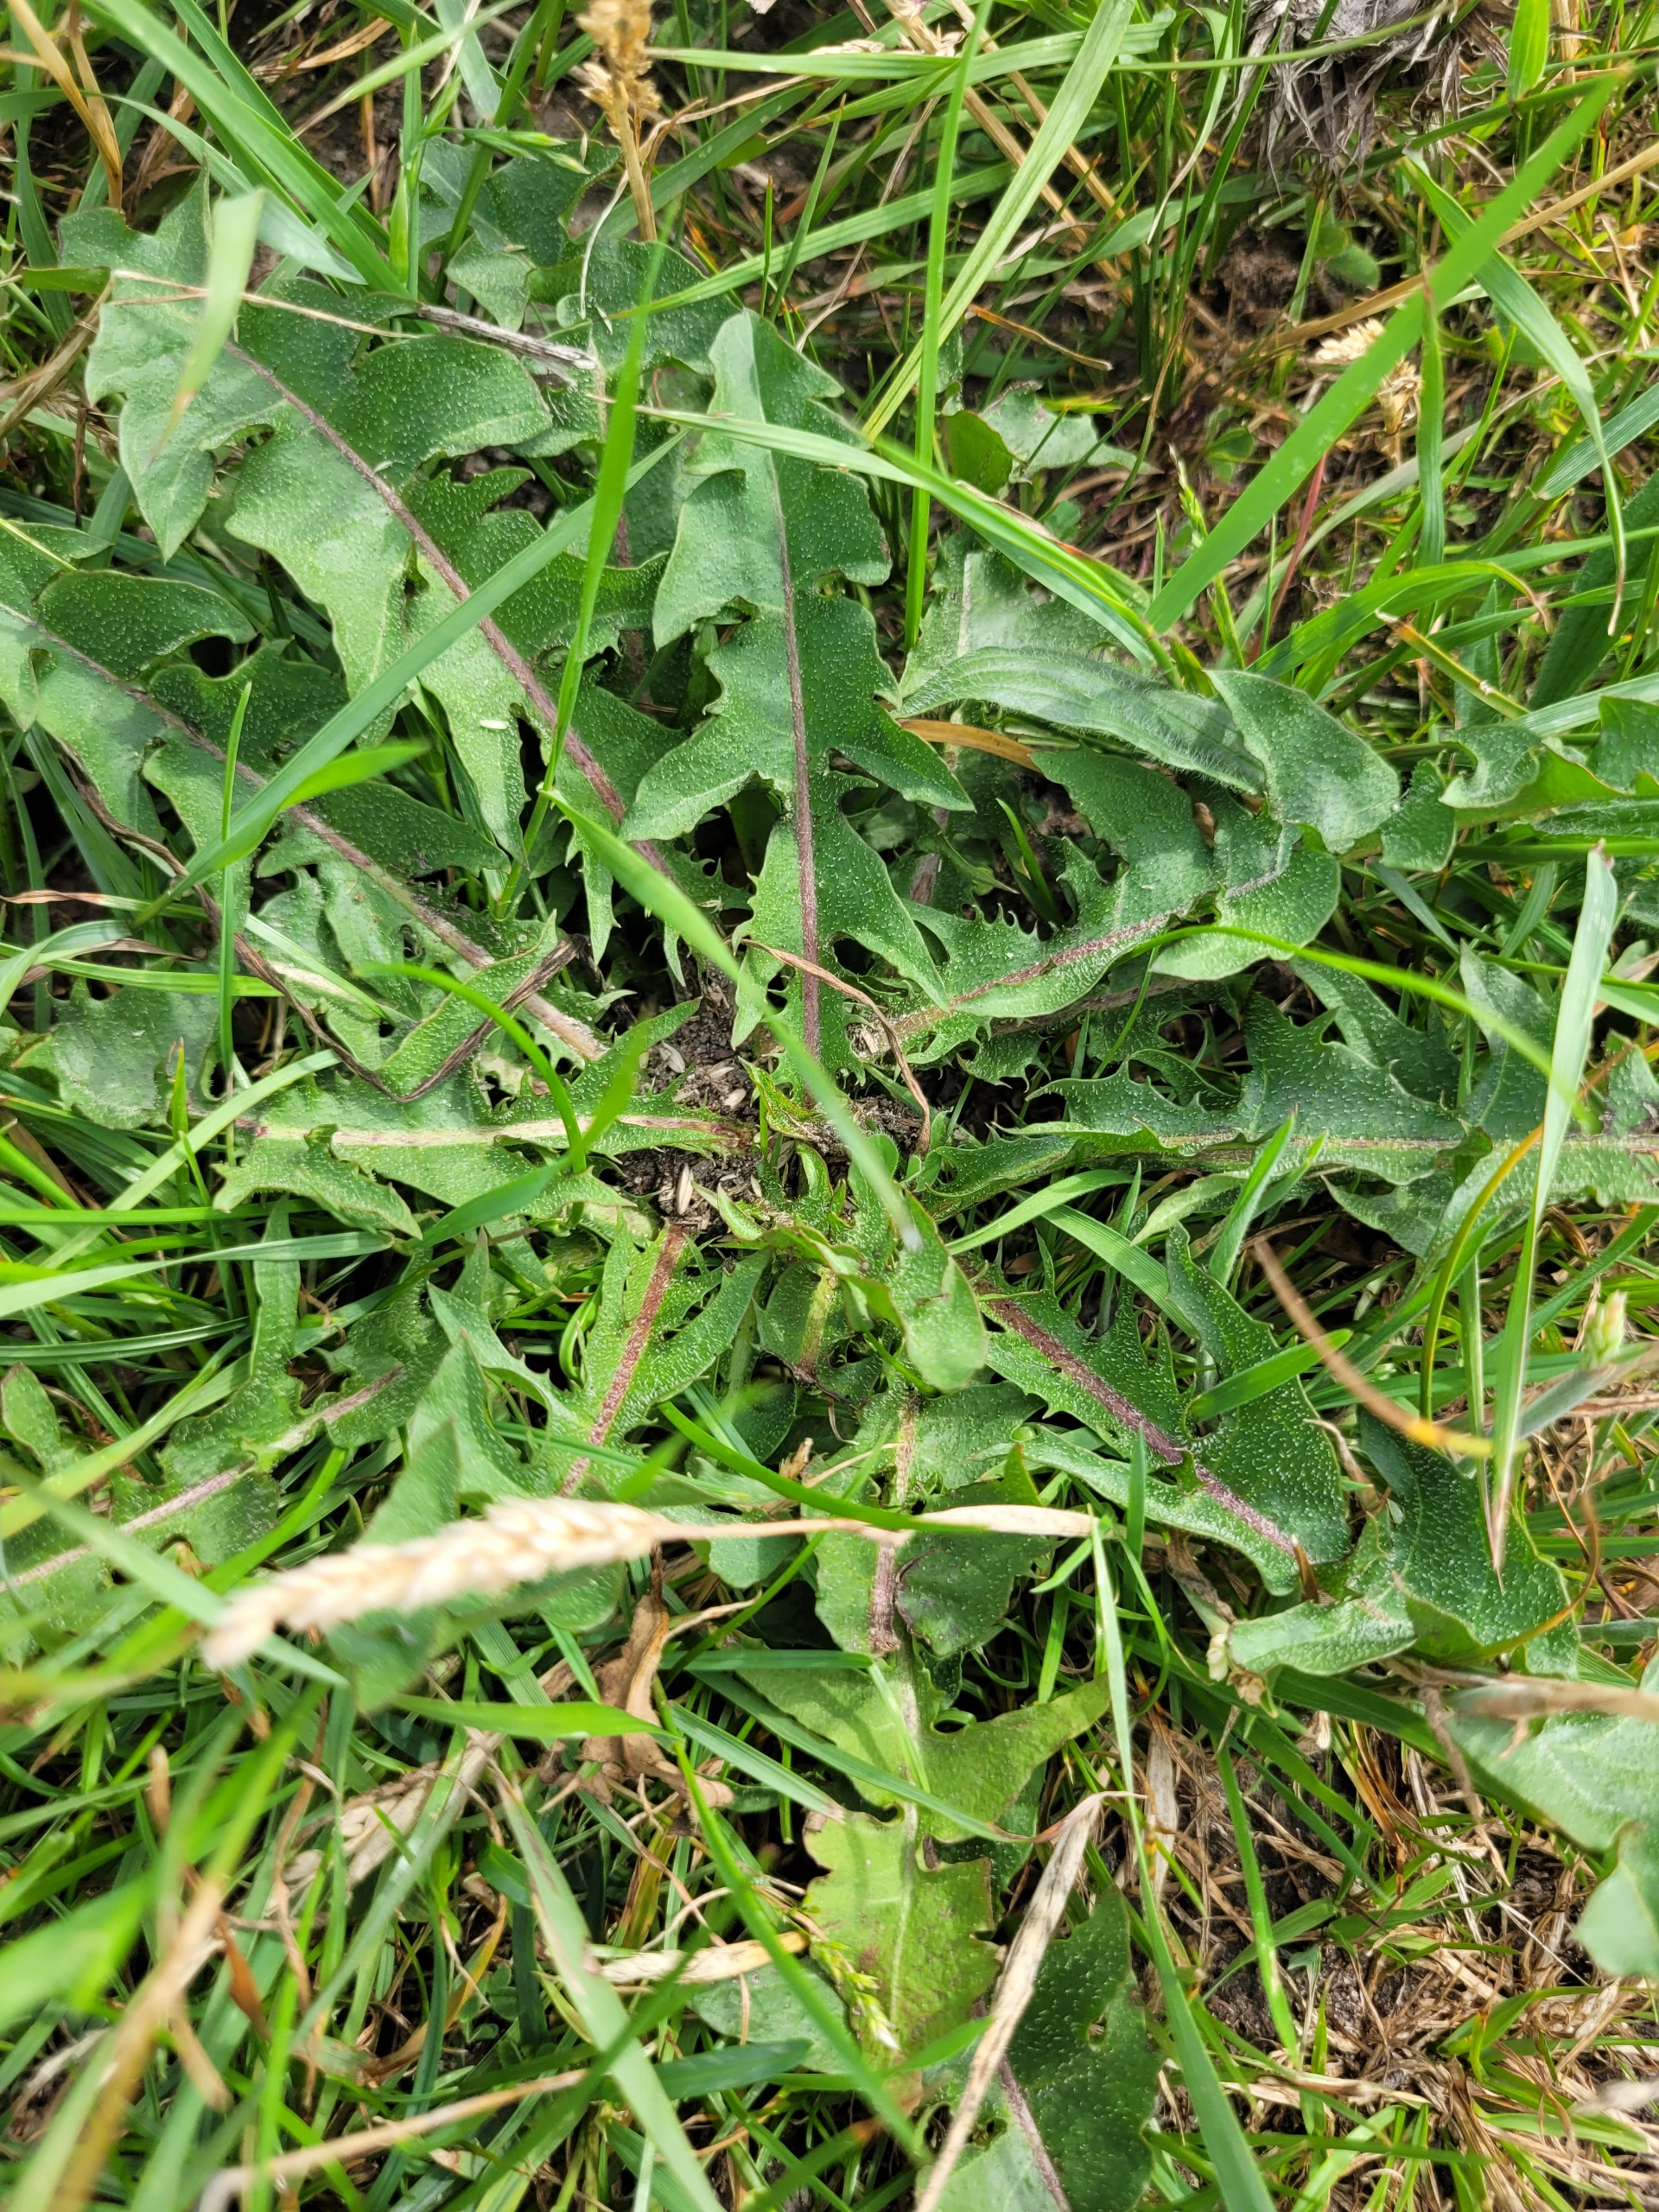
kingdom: Plantae
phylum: Tracheophyta
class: Magnoliopsida
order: Asterales
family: Asteraceae
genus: Taraxacum
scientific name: Taraxacum
